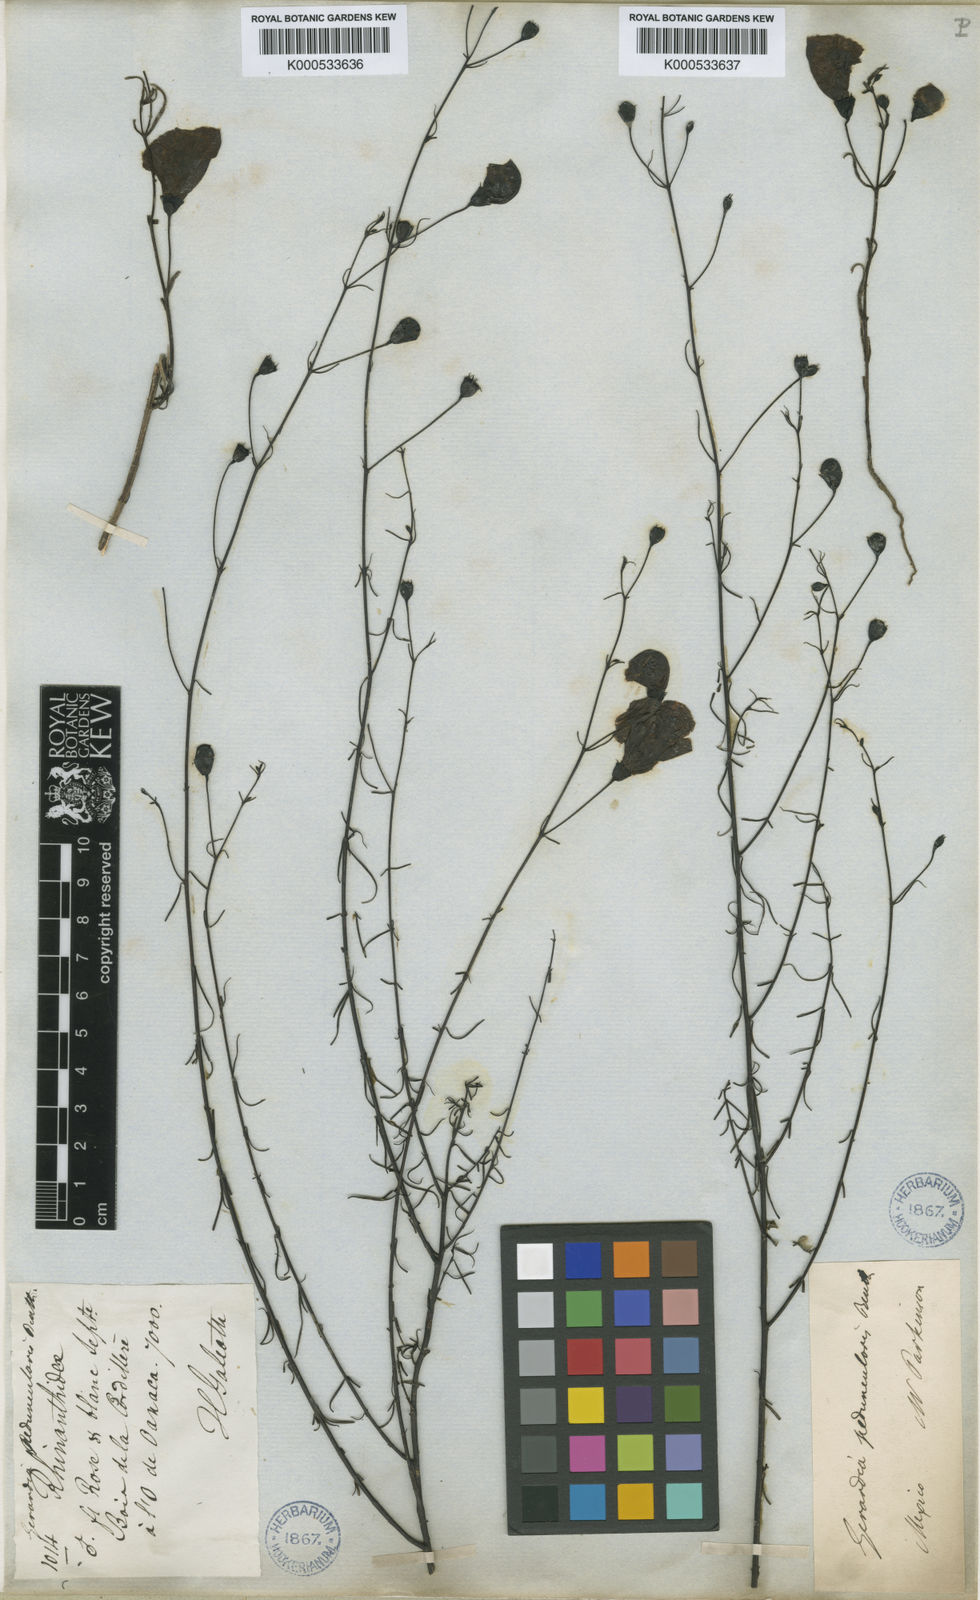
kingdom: Plantae
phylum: Tracheophyta
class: Magnoliopsida
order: Lamiales
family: Orobanchaceae
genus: Agalinis
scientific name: Agalinis peduncularis
